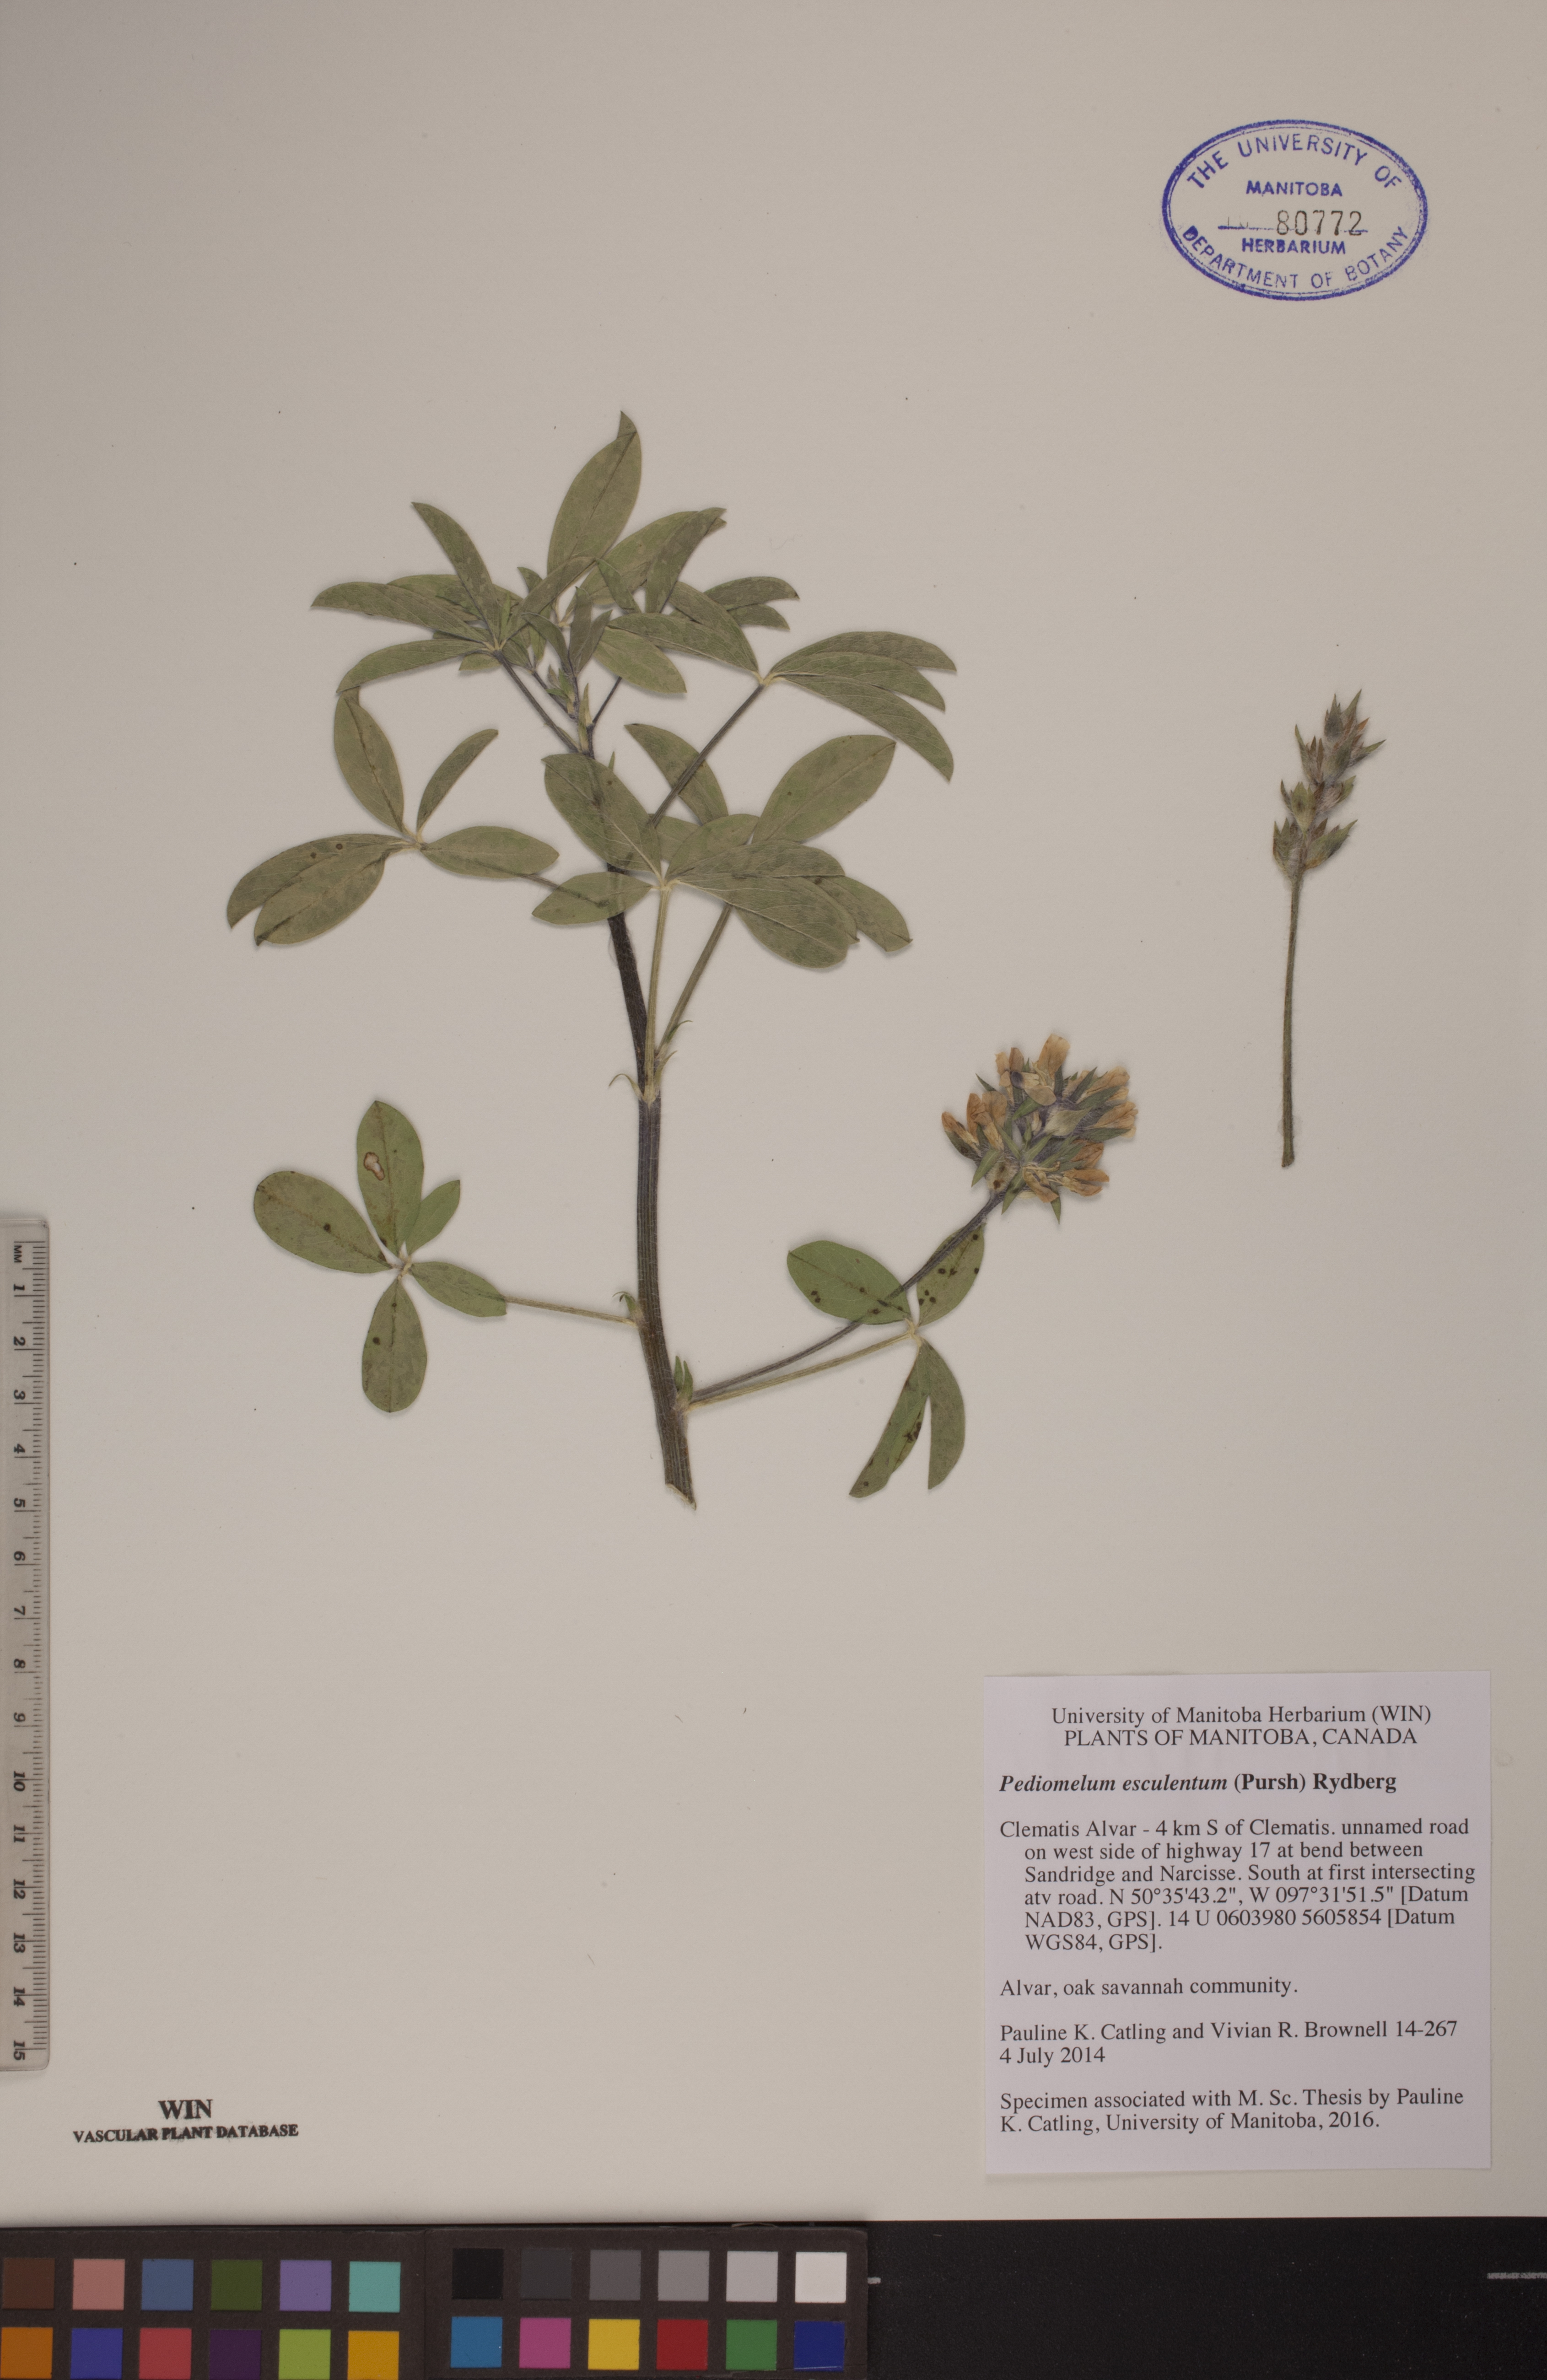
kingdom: Plantae
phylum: Tracheophyta
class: Magnoliopsida
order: Fabales
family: Fabaceae
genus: Pediomelum
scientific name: Pediomelum esculentum
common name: Indian-turnip
